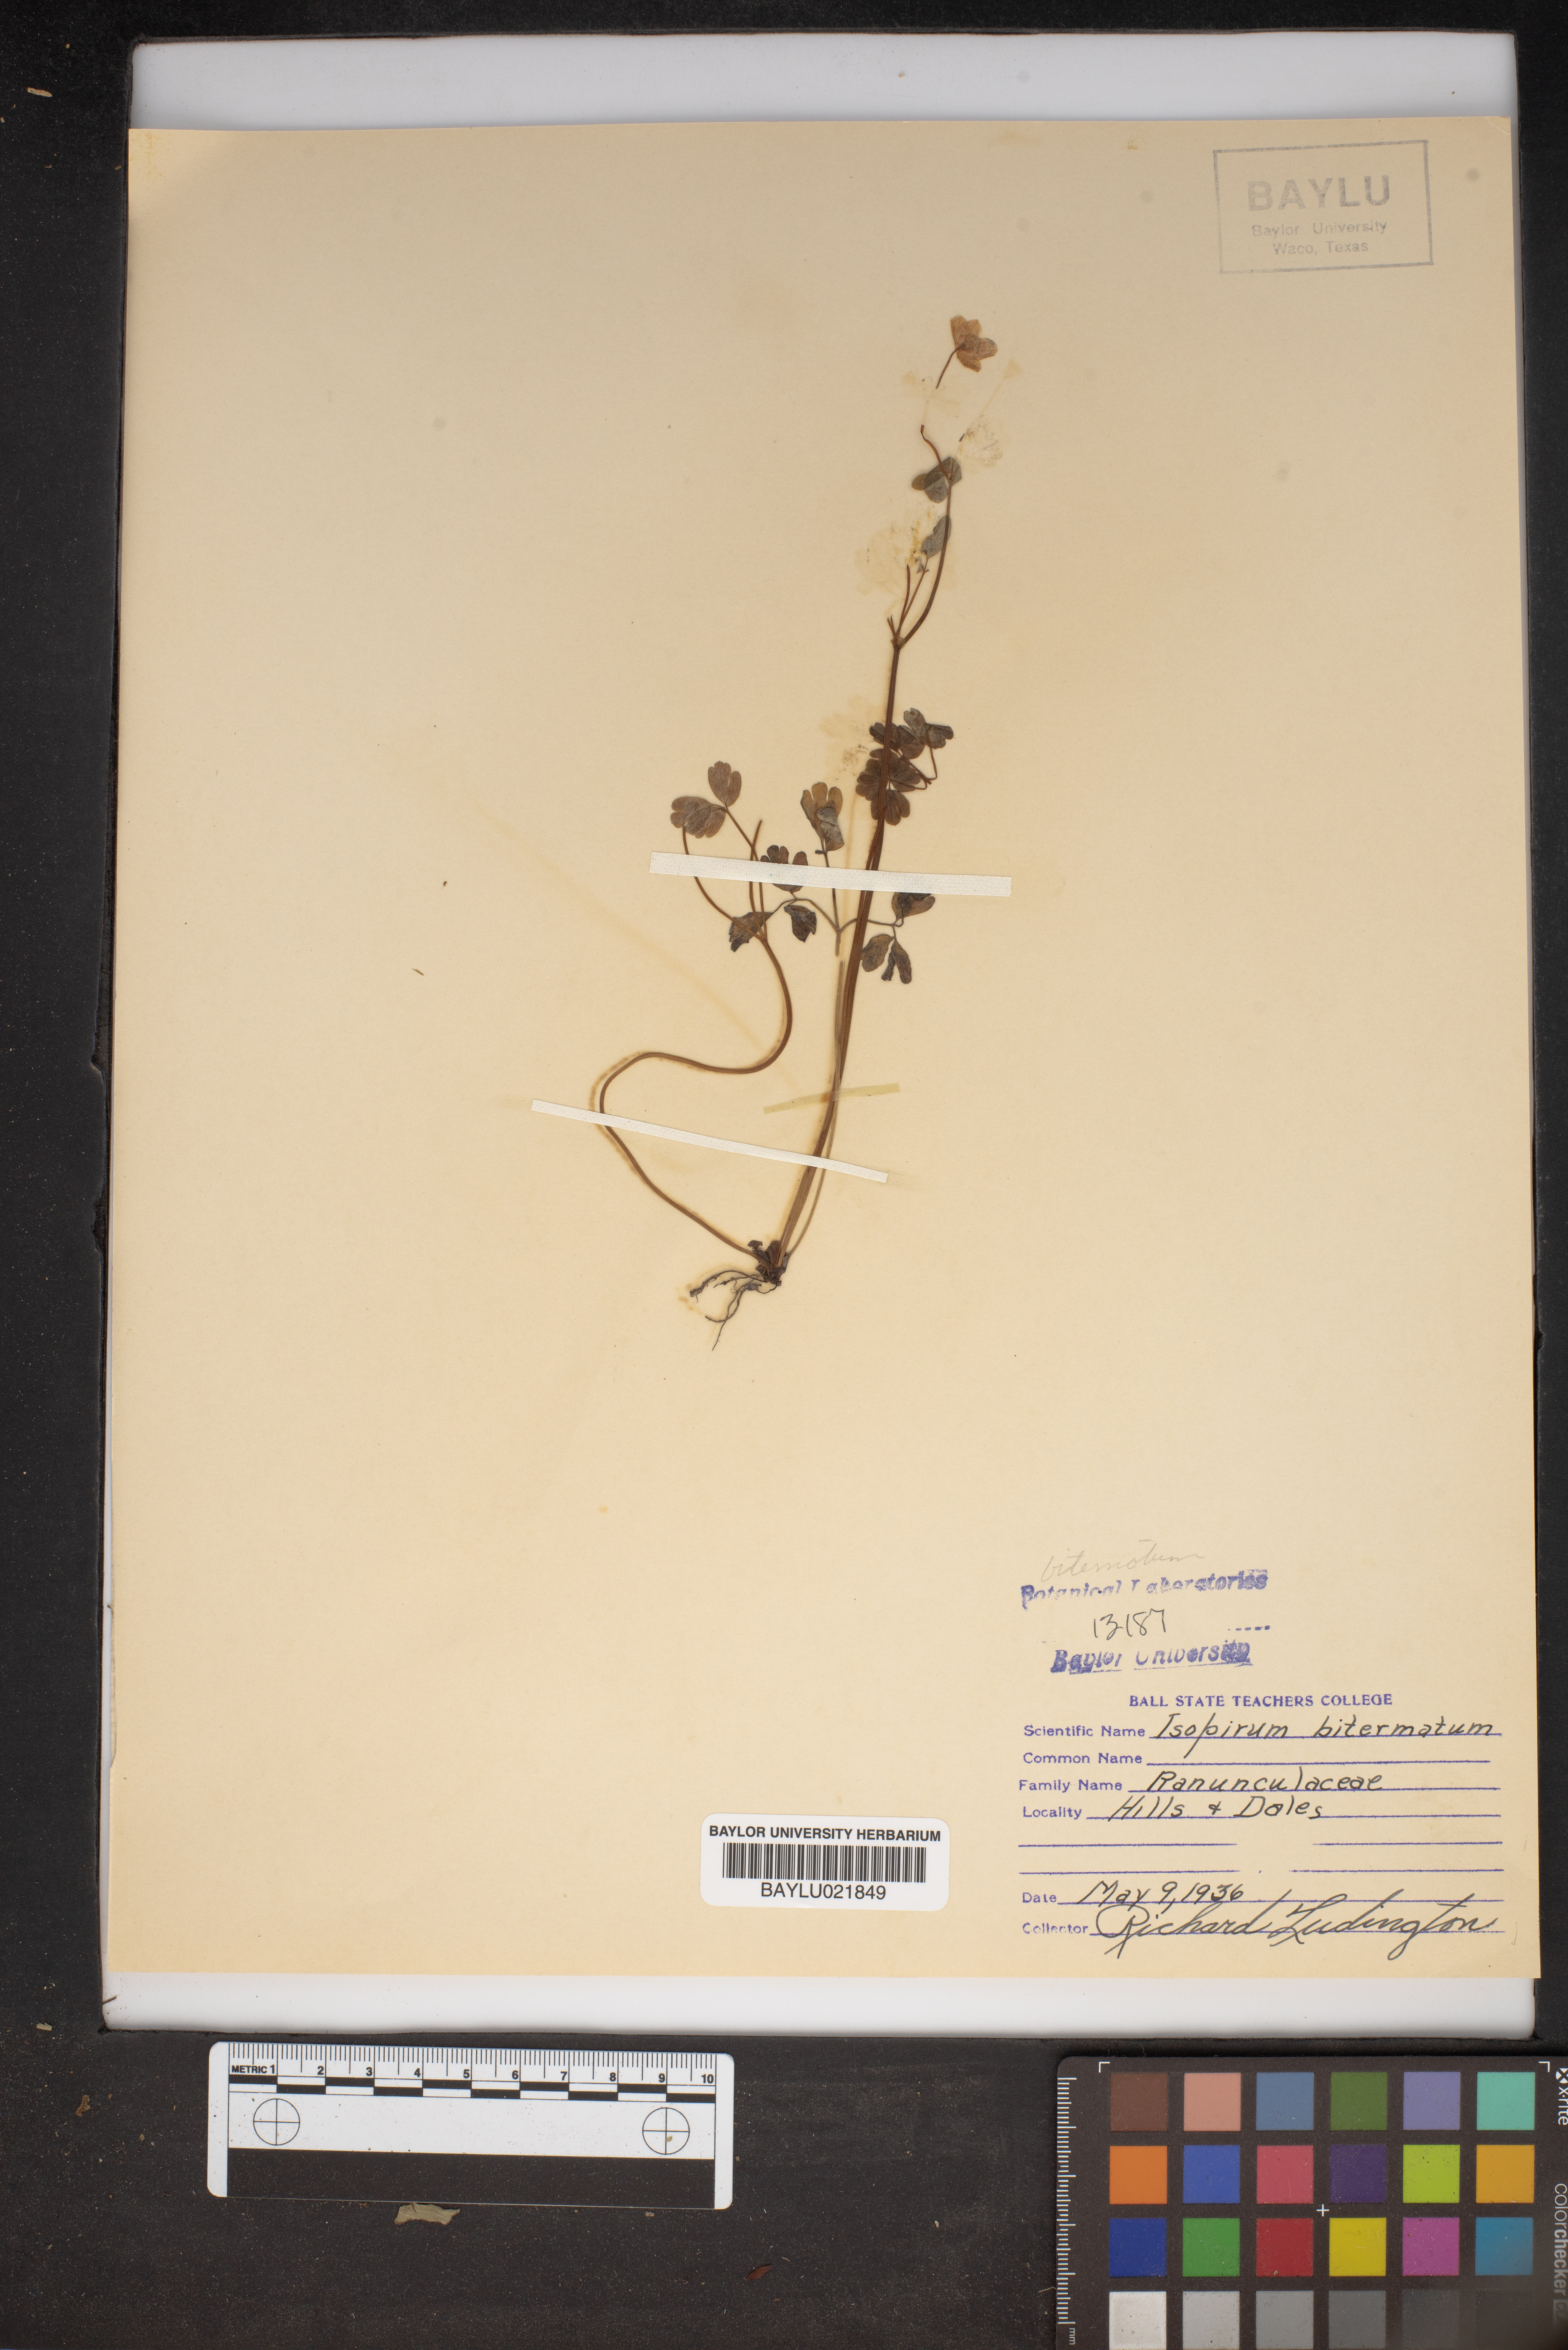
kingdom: Plantae
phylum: Tracheophyta
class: Magnoliopsida
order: Ranunculales
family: Ranunculaceae
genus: Enemion
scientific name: Enemion biternatum
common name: Eastern false rue-anemone
